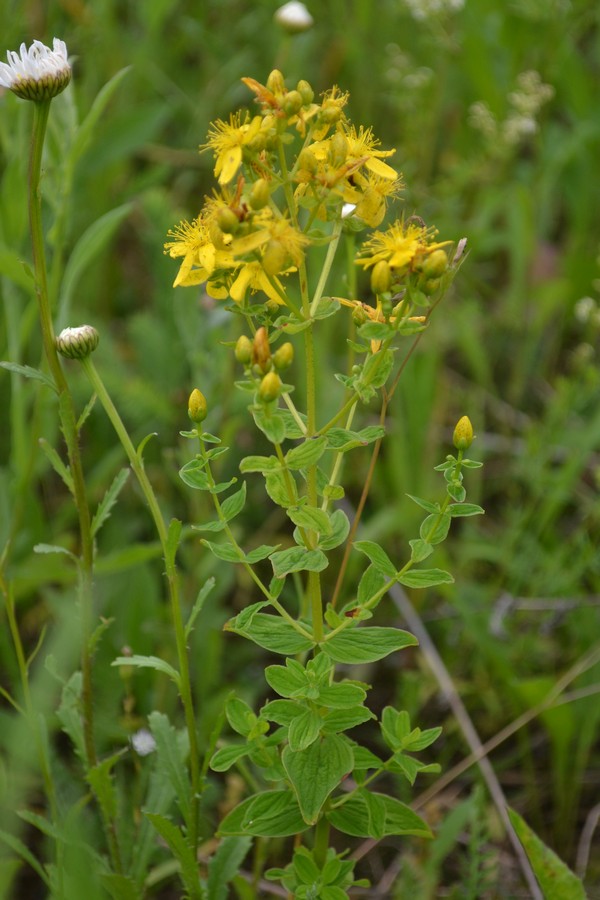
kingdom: Plantae
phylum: Tracheophyta
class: Magnoliopsida
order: Malpighiales
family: Hypericaceae
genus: Hypericum
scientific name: Hypericum perforatum
